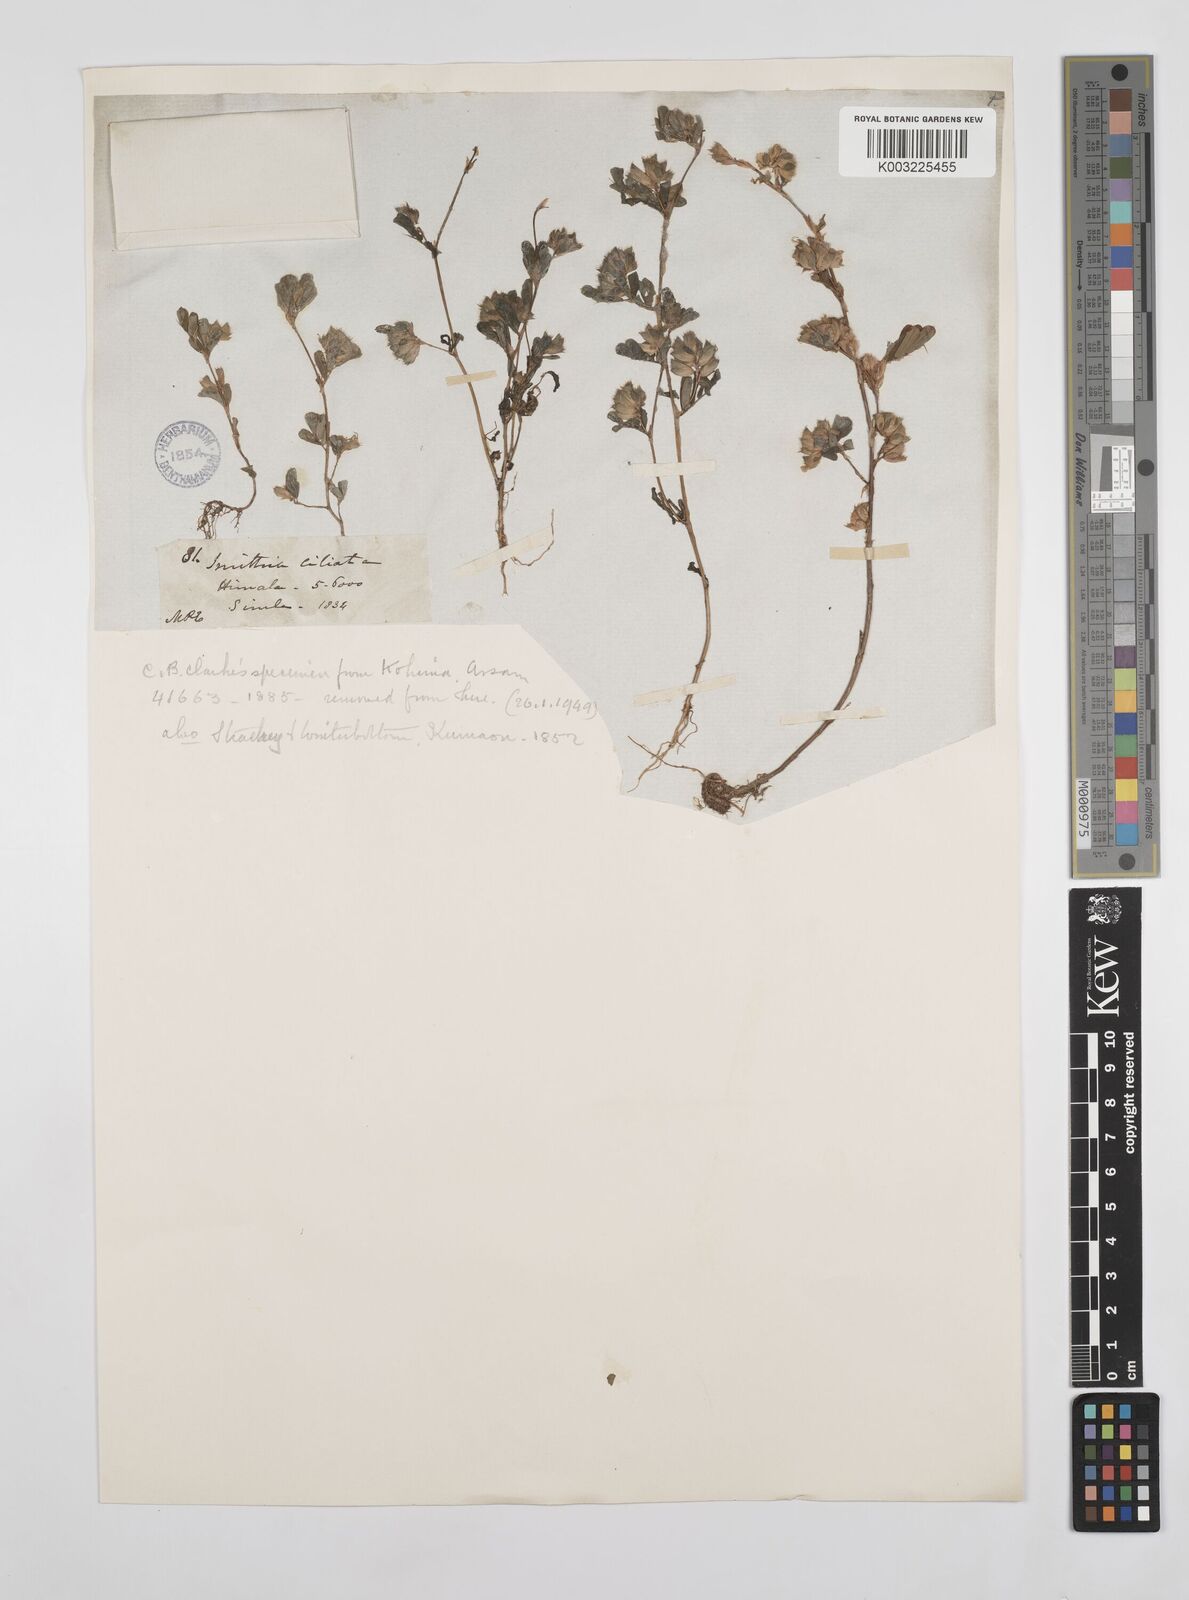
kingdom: Plantae
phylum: Tracheophyta
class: Magnoliopsida
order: Fabales
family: Fabaceae
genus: Smithia
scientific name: Smithia ciliata
